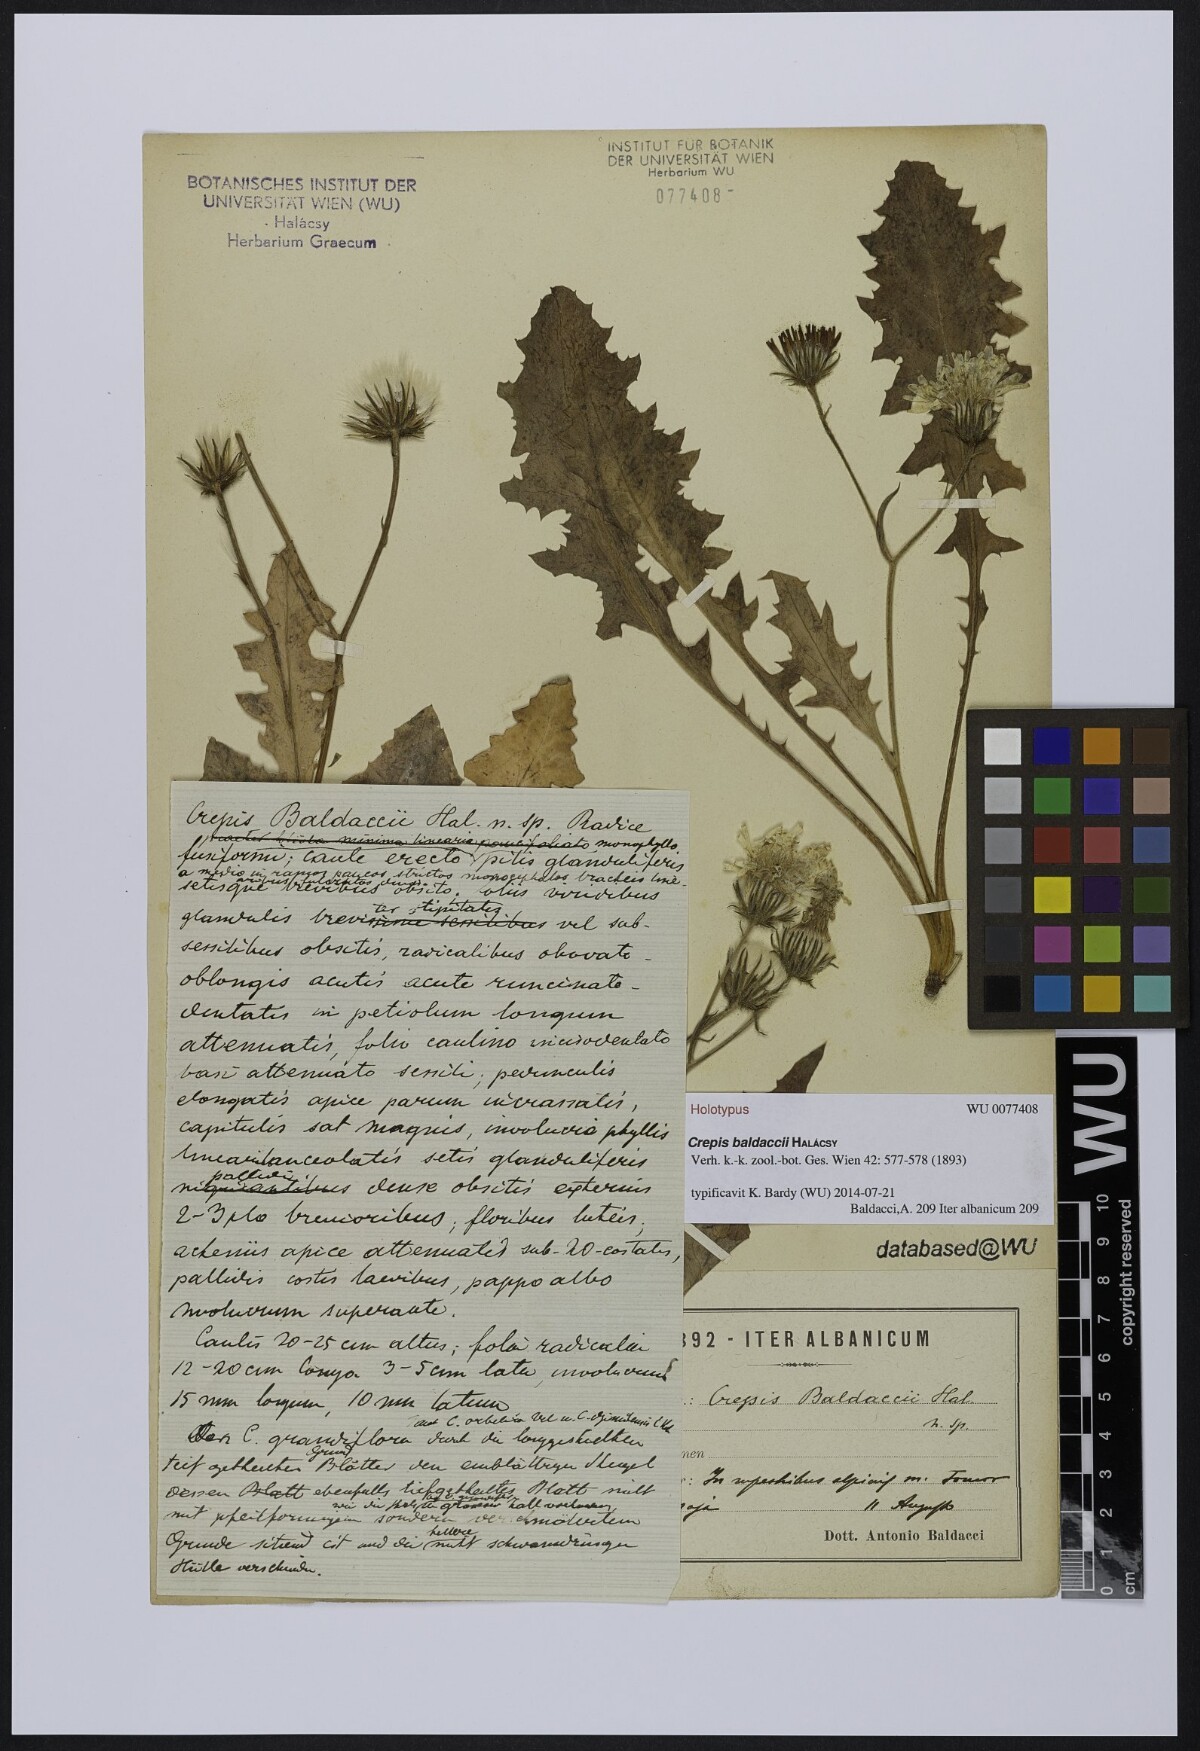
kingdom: Plantae
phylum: Tracheophyta
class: Magnoliopsida
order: Asterales
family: Asteraceae
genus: Crepis
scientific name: Crepis baldaccii
